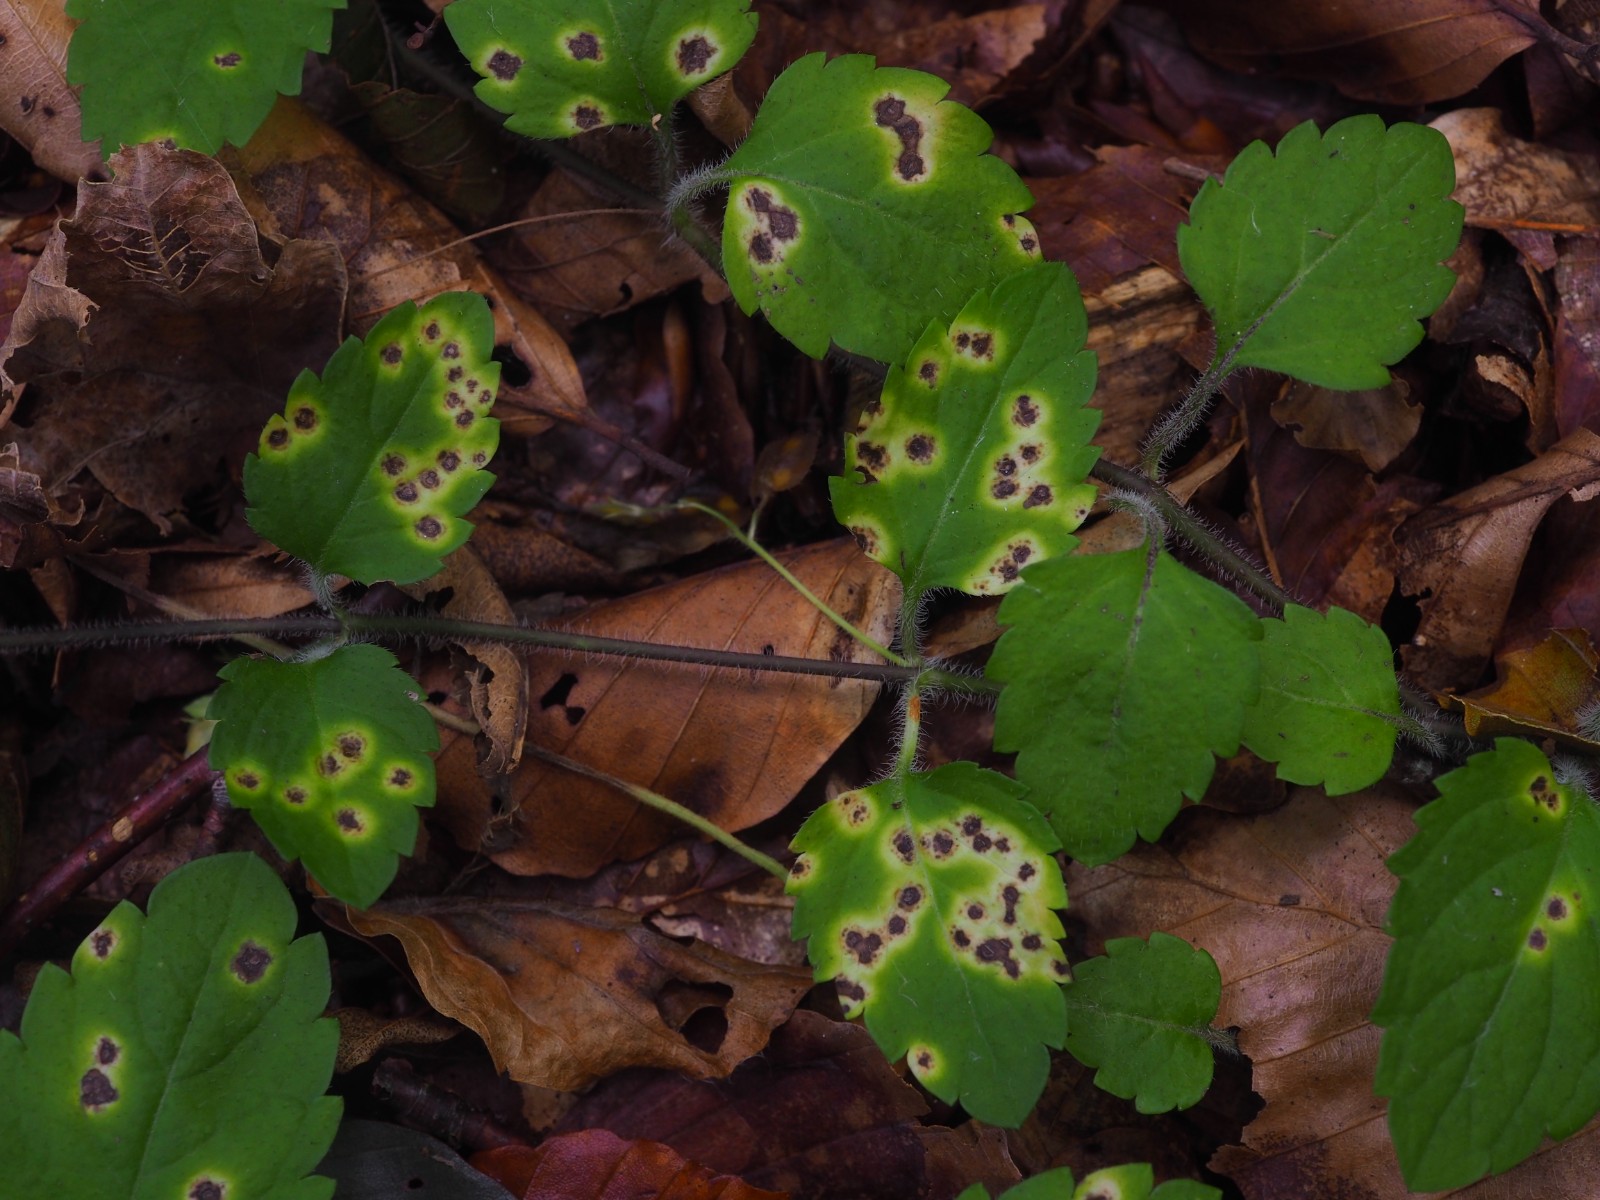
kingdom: Fungi
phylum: Basidiomycota
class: Pucciniomycetes
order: Pucciniales
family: Pucciniaceae
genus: Puccinia
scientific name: Puccinia albulensis
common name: Alpine veronica rust
